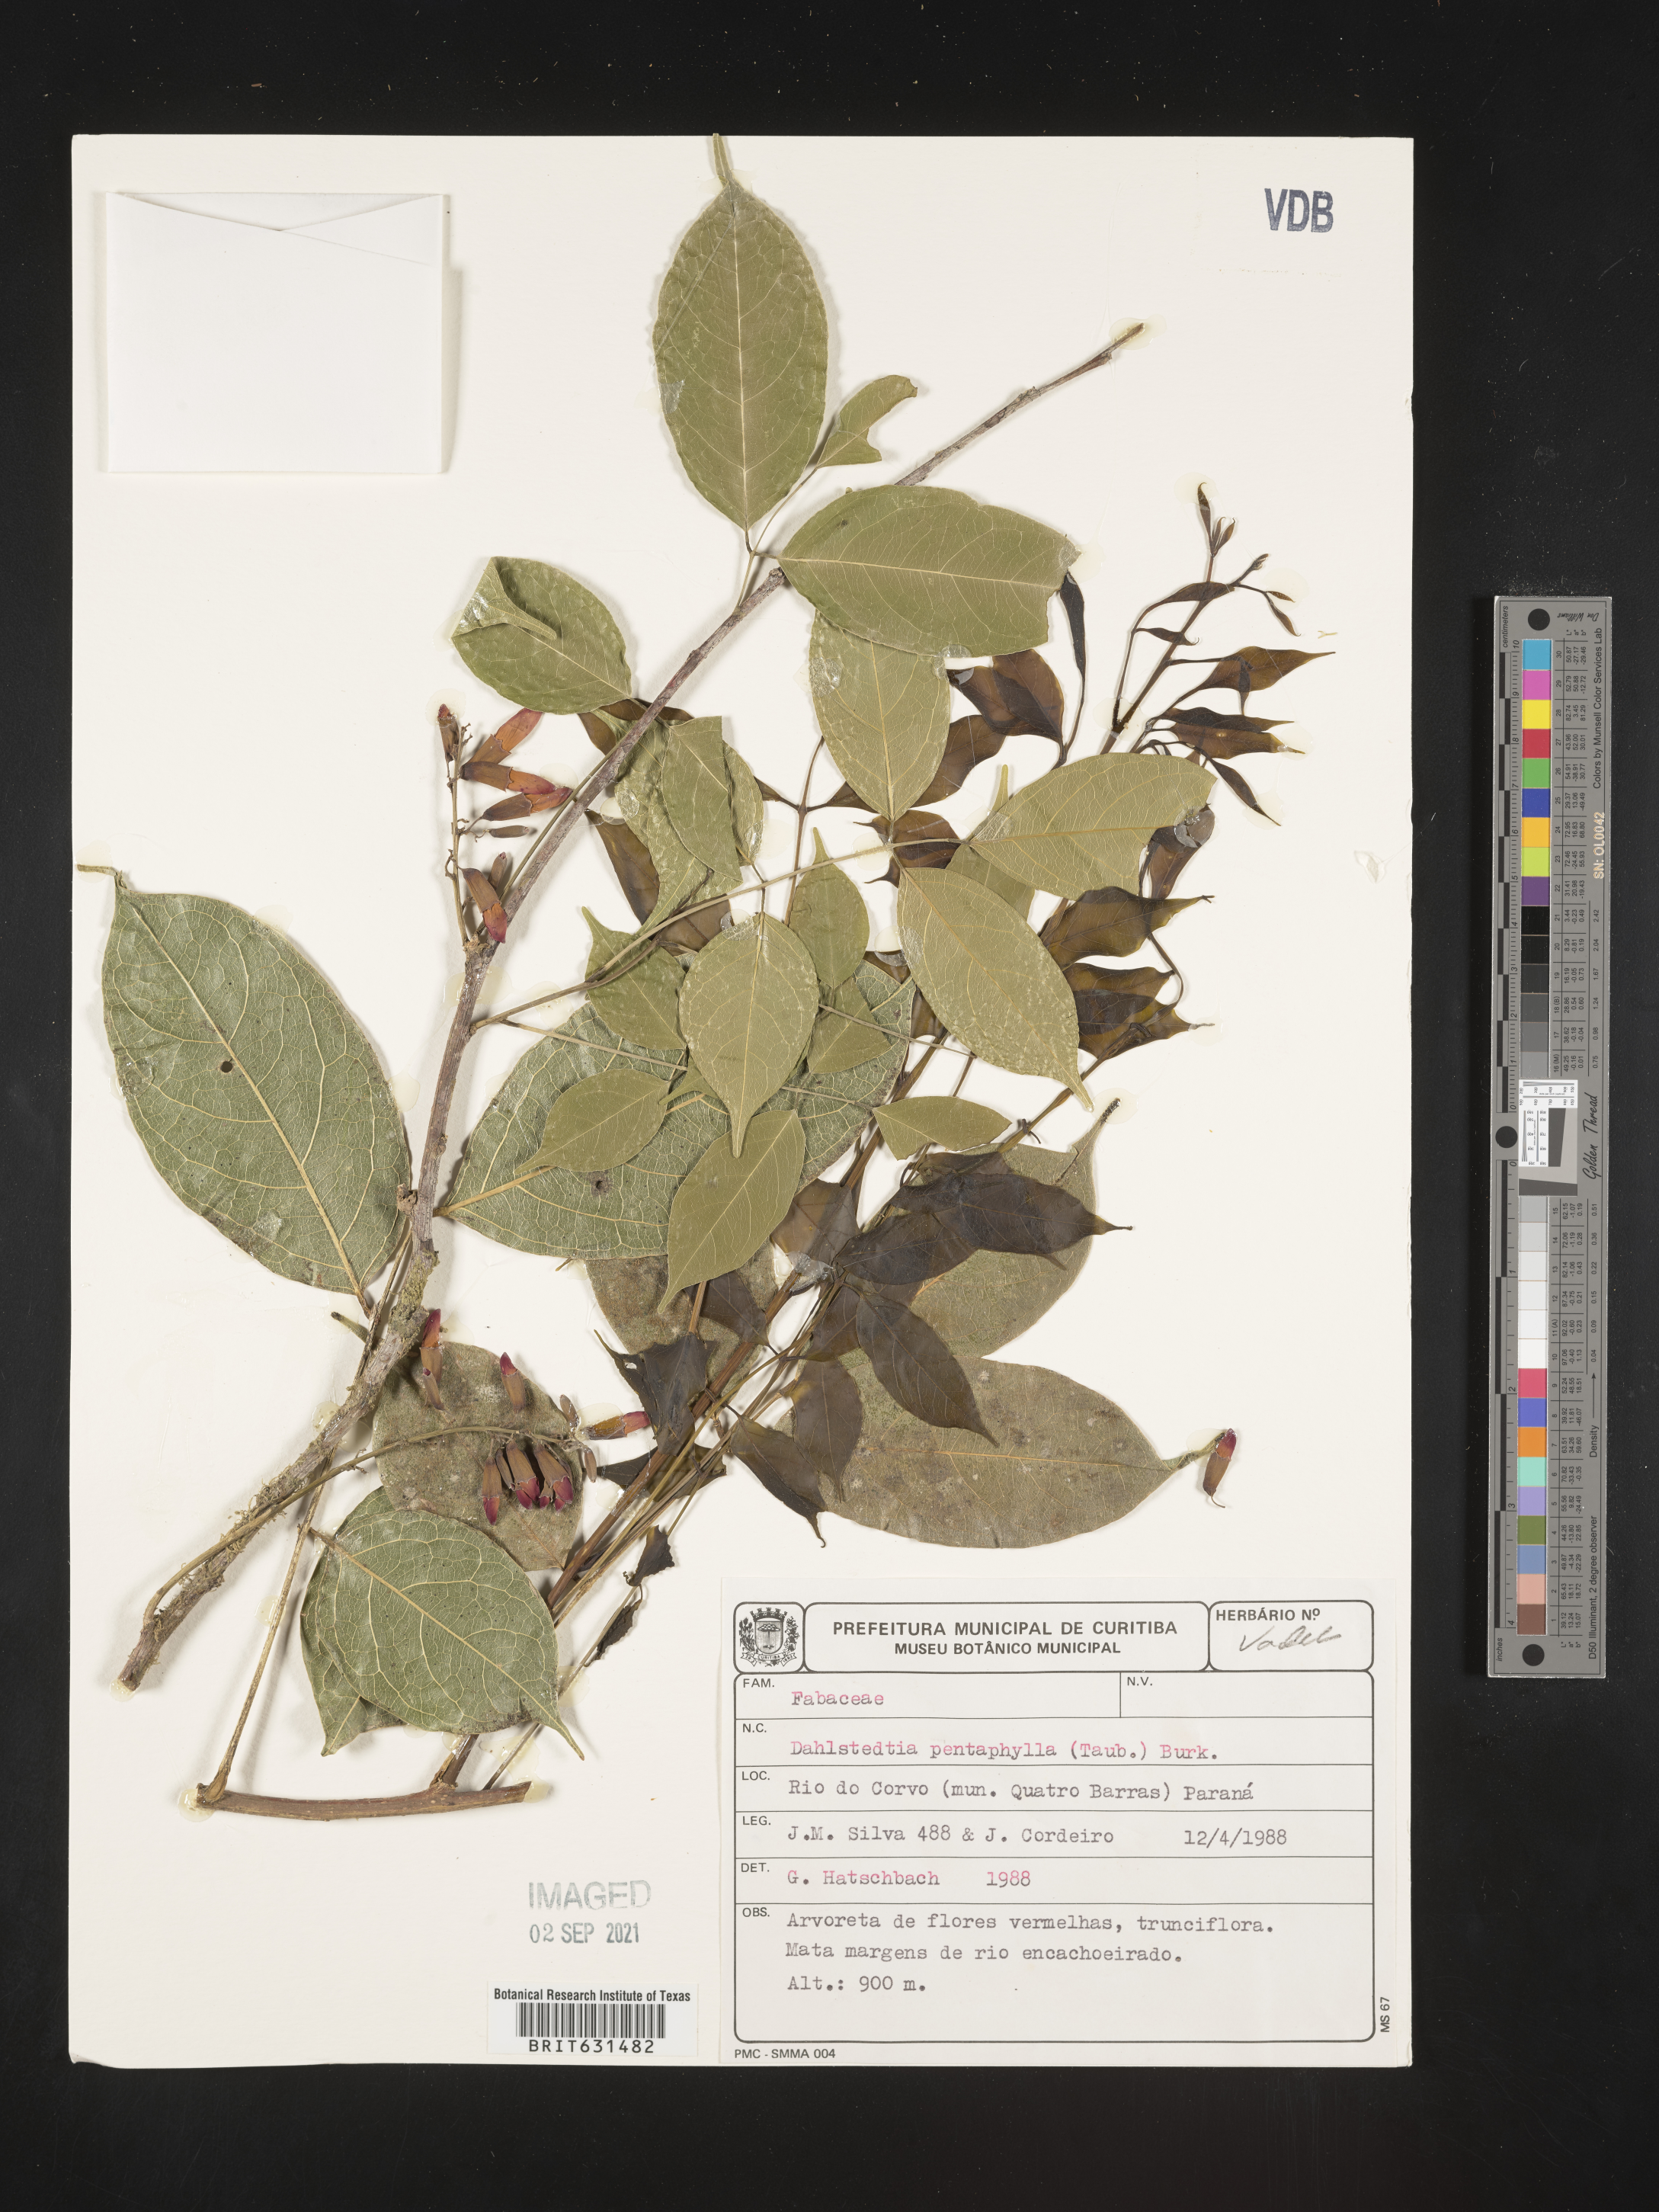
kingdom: Plantae
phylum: Tracheophyta
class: Magnoliopsida
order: Fabales
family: Fabaceae
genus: Dahlstedtia
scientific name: Dahlstedtia pentaphylla
